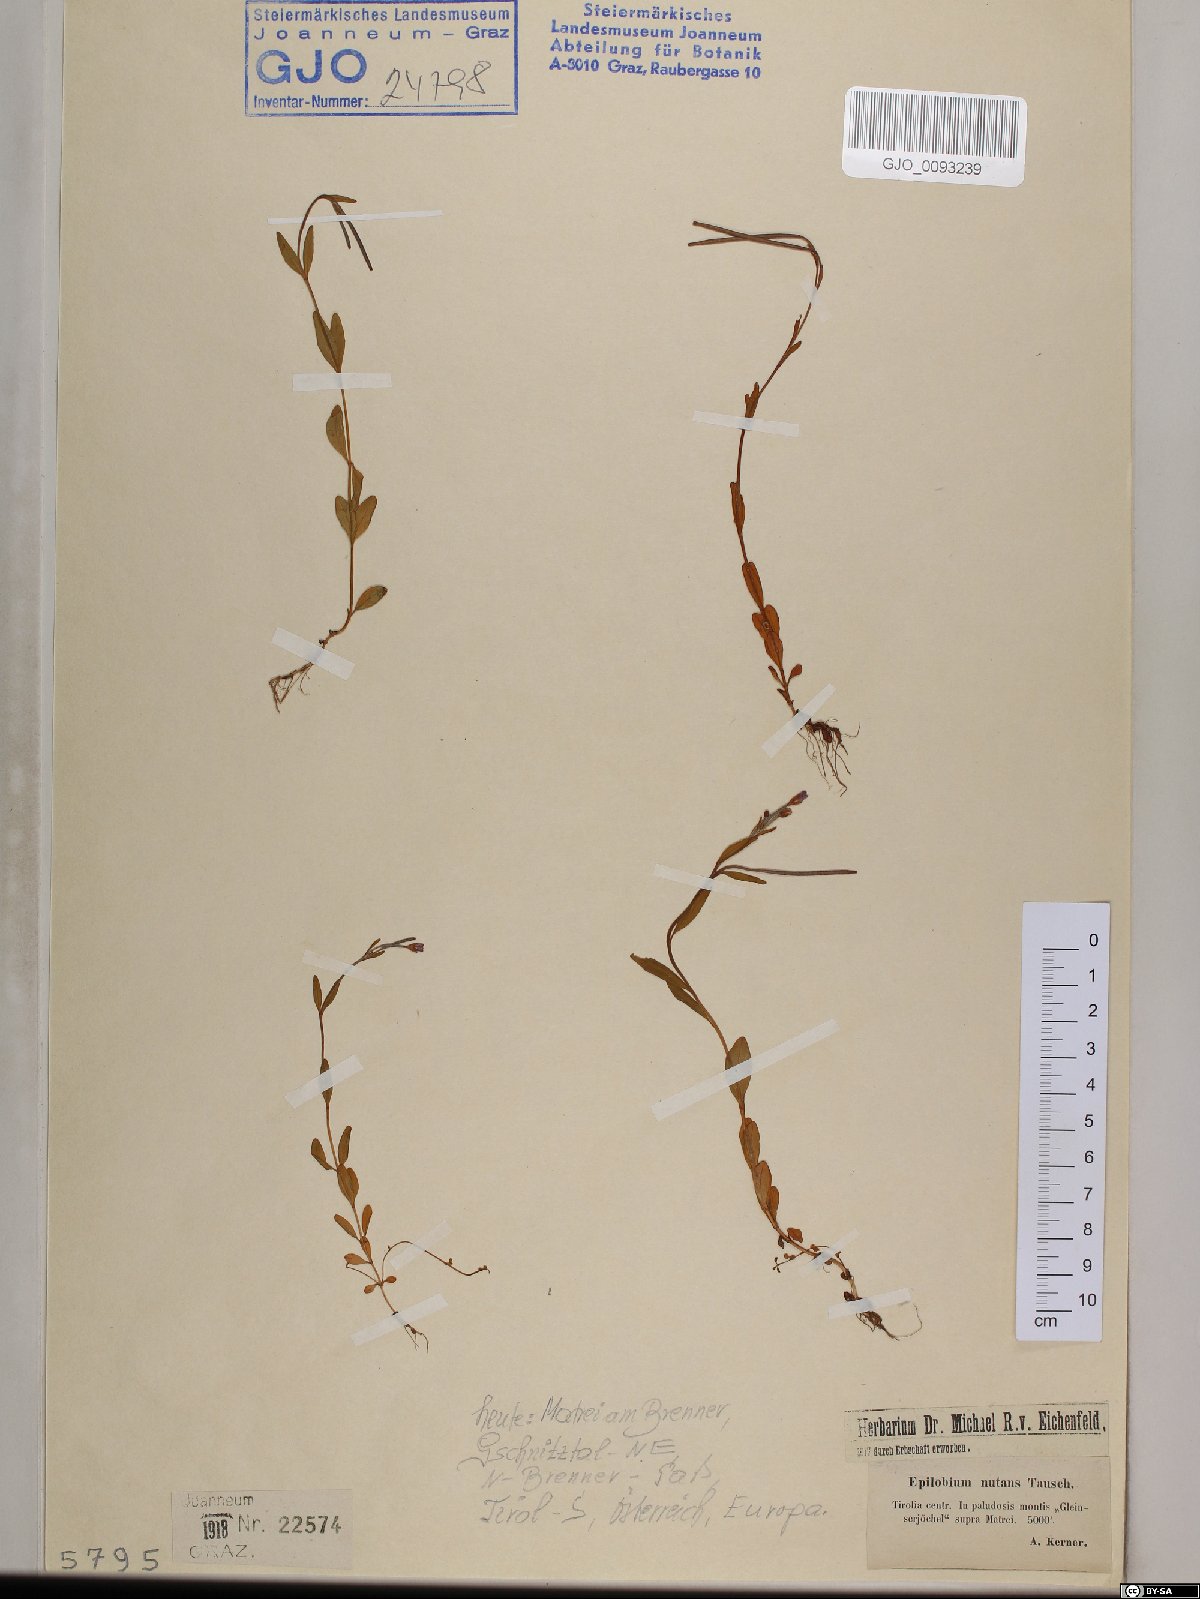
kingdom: Plantae
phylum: Tracheophyta
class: Magnoliopsida
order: Myrtales
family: Onagraceae
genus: Epilobium
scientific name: Epilobium nutans
